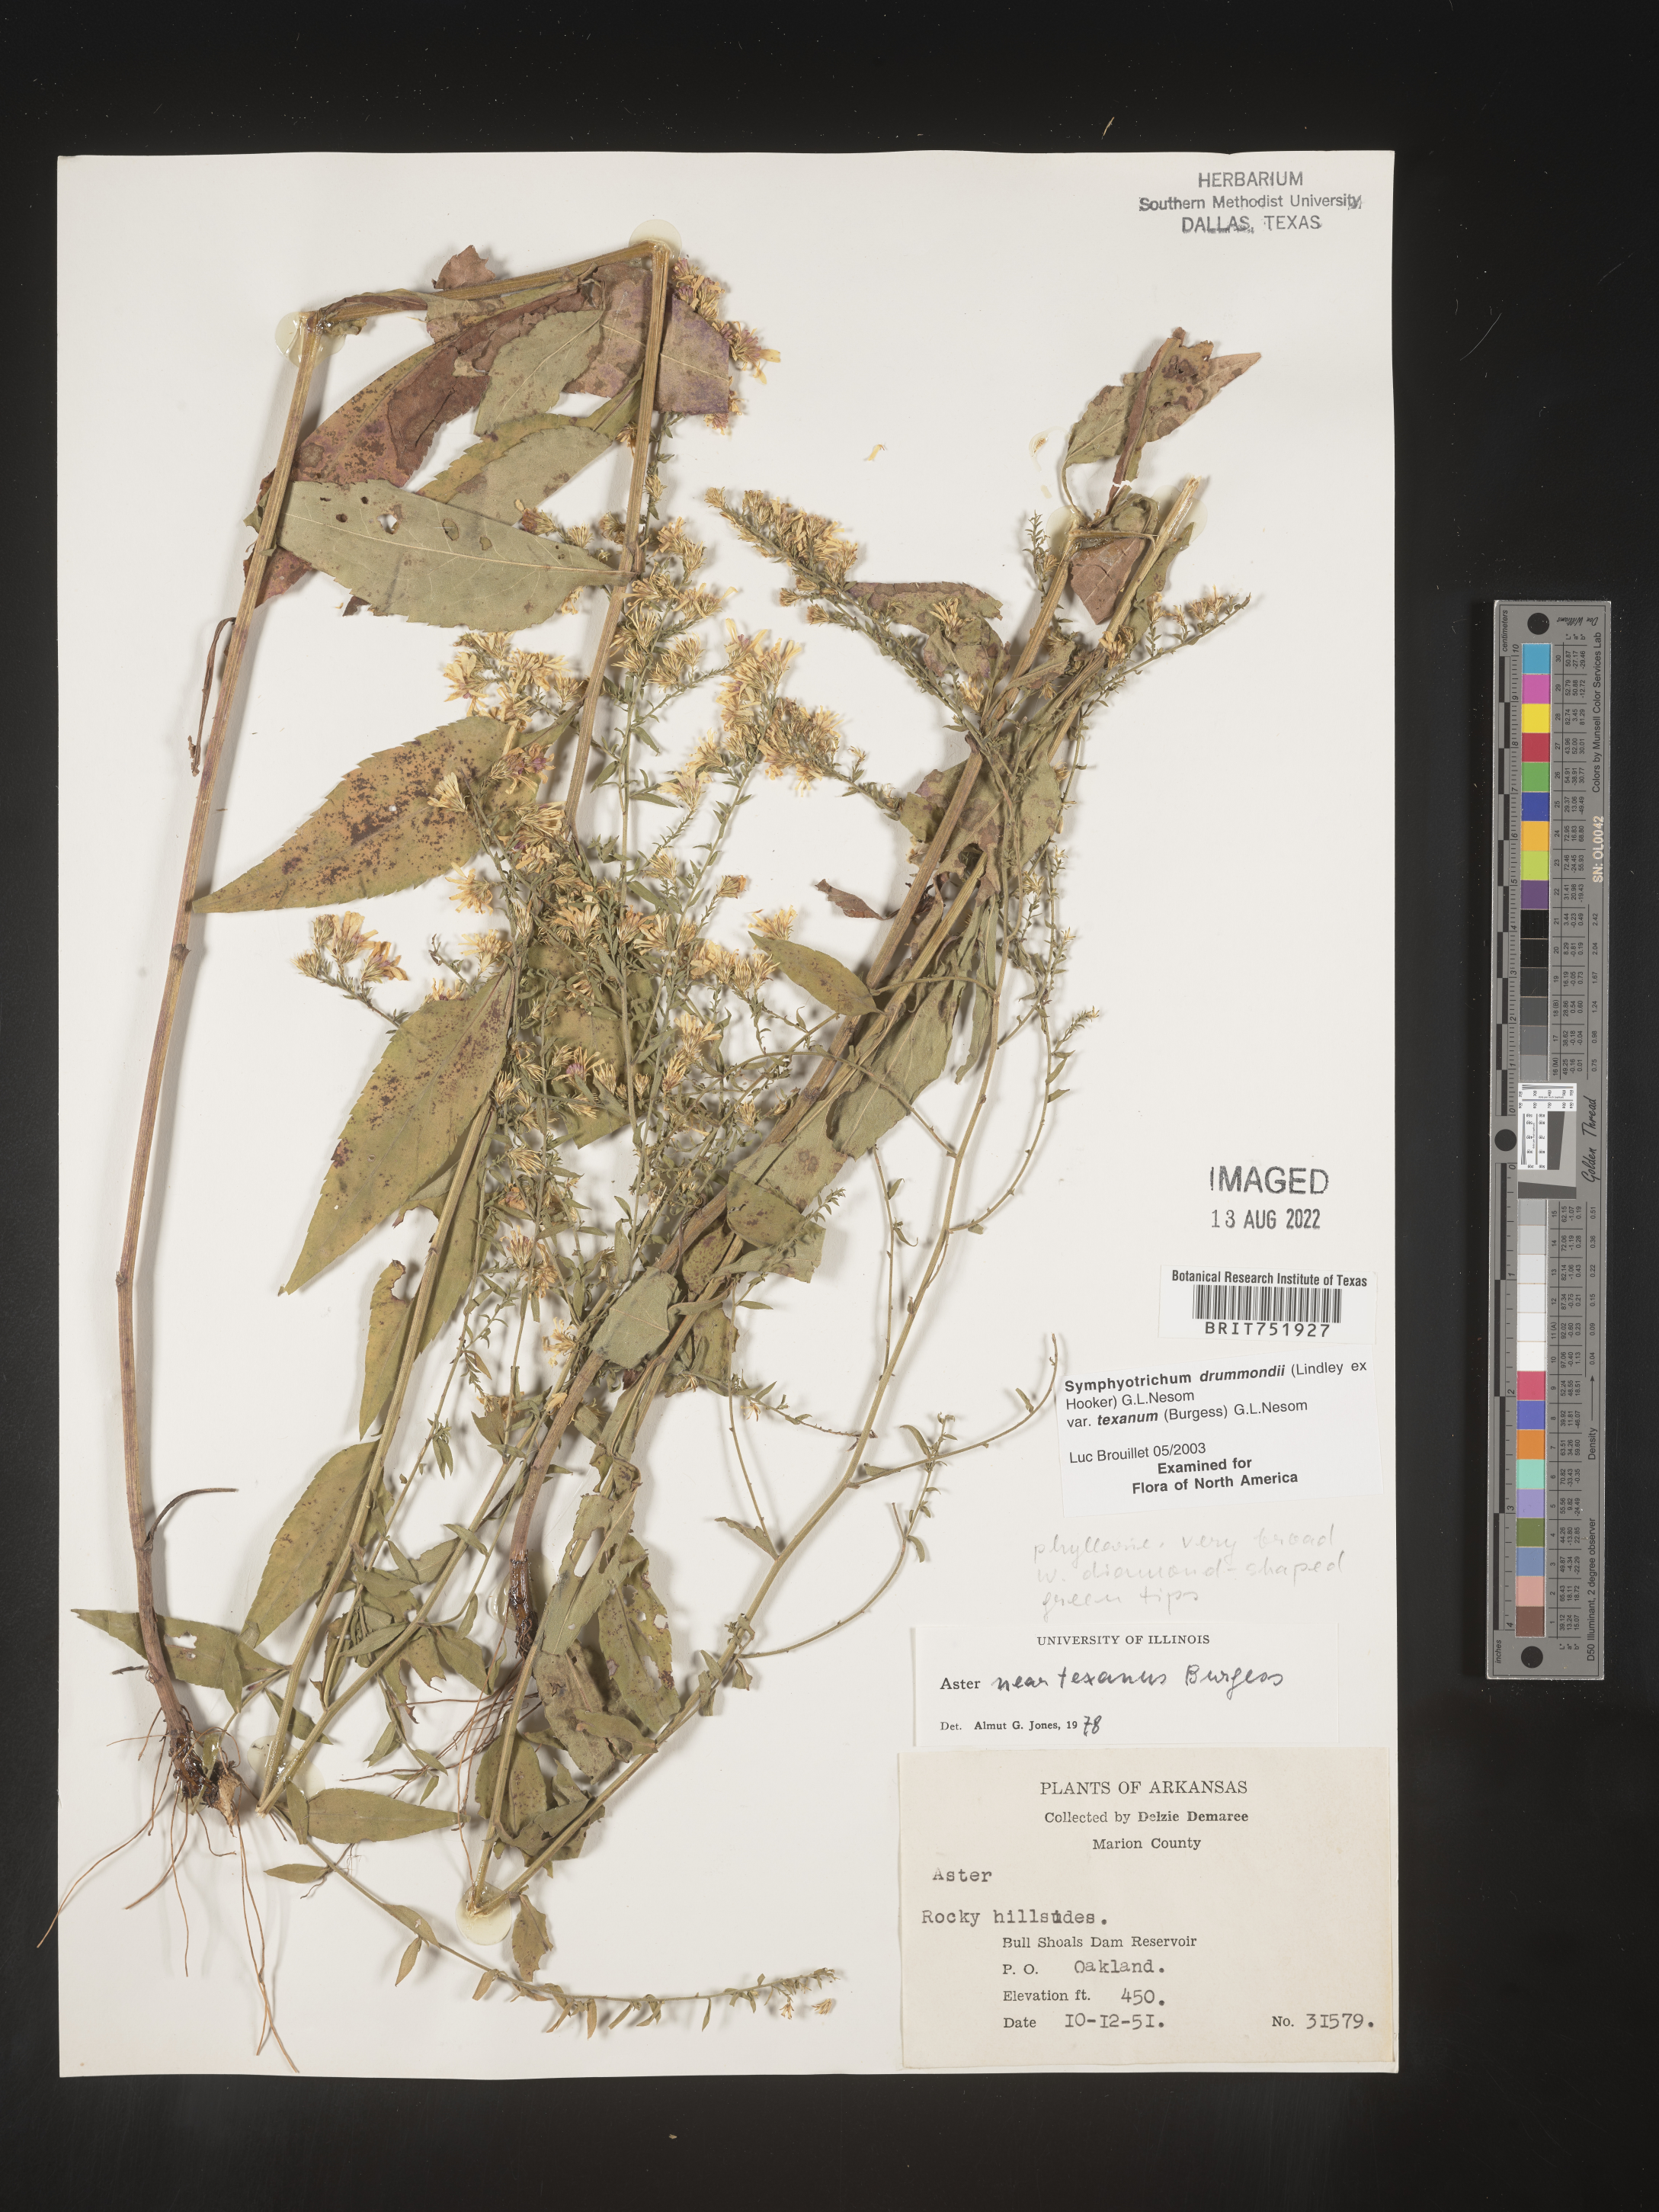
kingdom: Plantae
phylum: Tracheophyta
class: Magnoliopsida
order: Asterales
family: Asteraceae
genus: Symphyotrichum
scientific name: Symphyotrichum drummondii
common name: Drummond's aster
